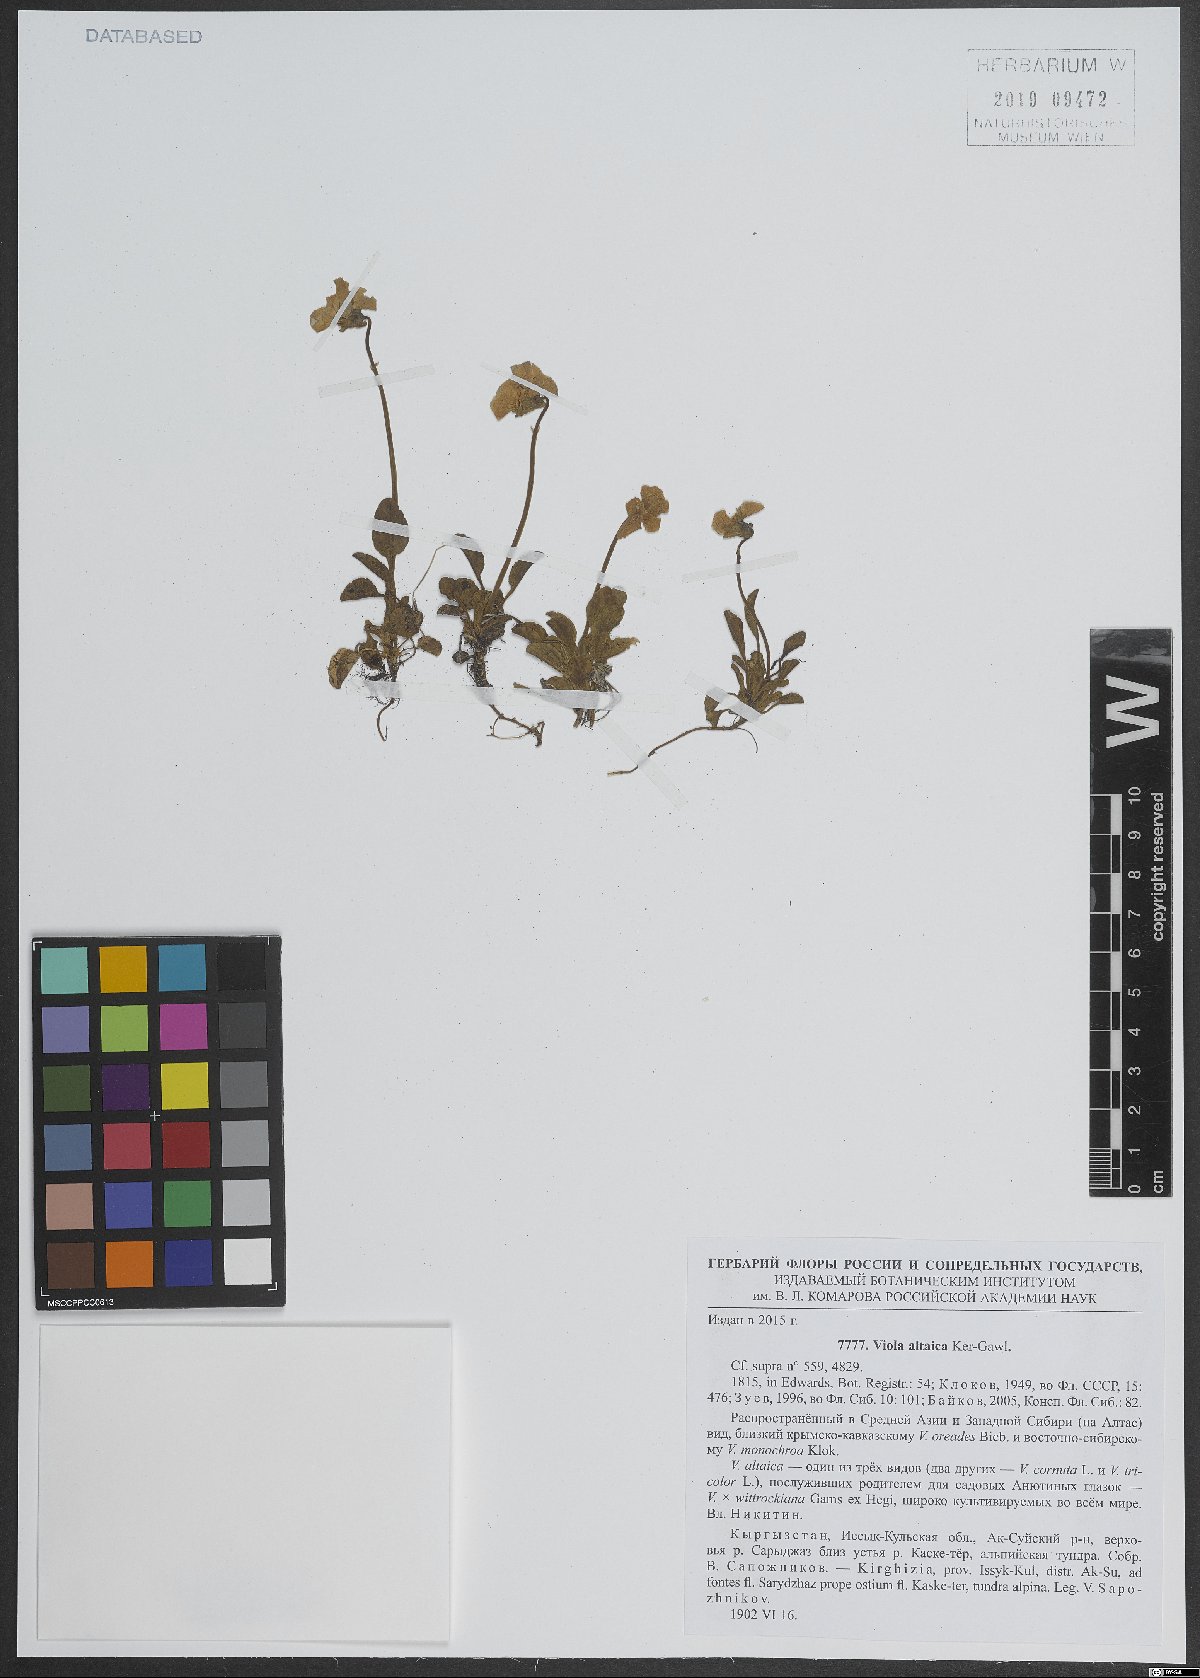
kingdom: Plantae
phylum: Tracheophyta
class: Magnoliopsida
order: Malpighiales
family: Violaceae
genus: Viola
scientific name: Viola altaica
